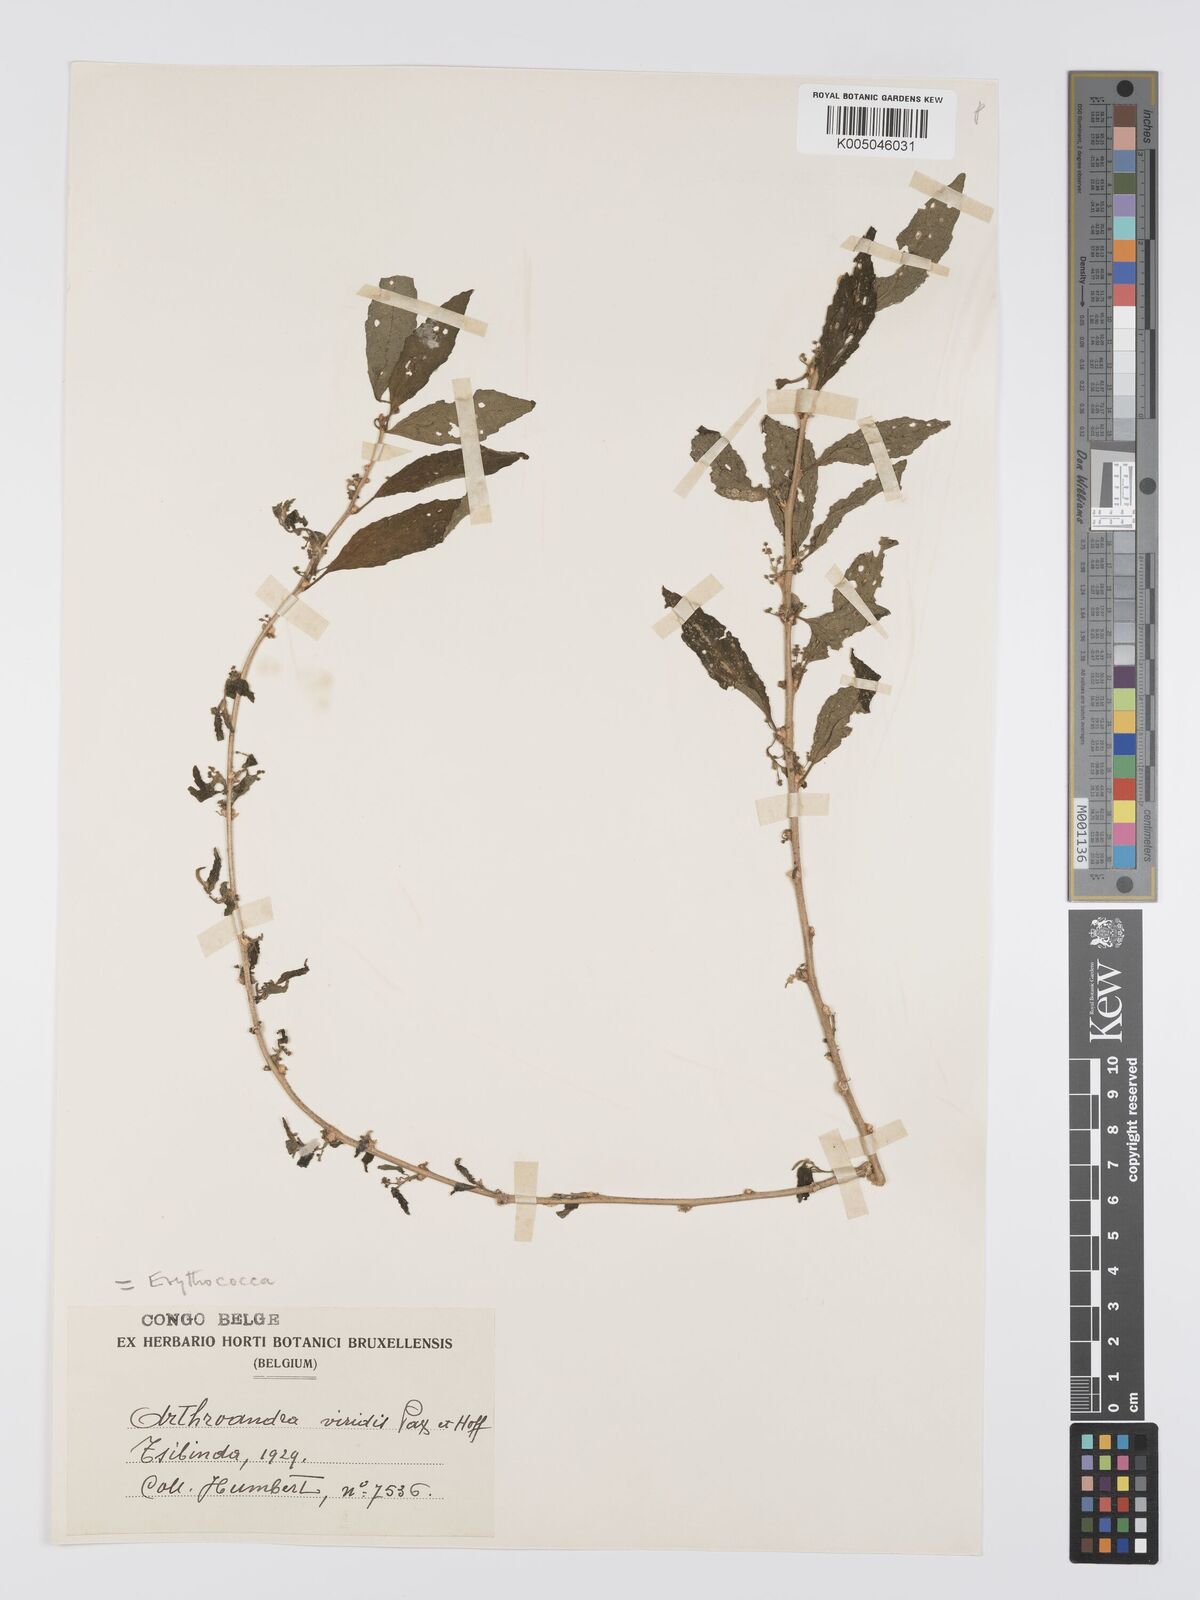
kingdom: Plantae
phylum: Tracheophyta
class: Magnoliopsida
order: Malpighiales
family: Euphorbiaceae
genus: Erythrococca
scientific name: Erythrococca
